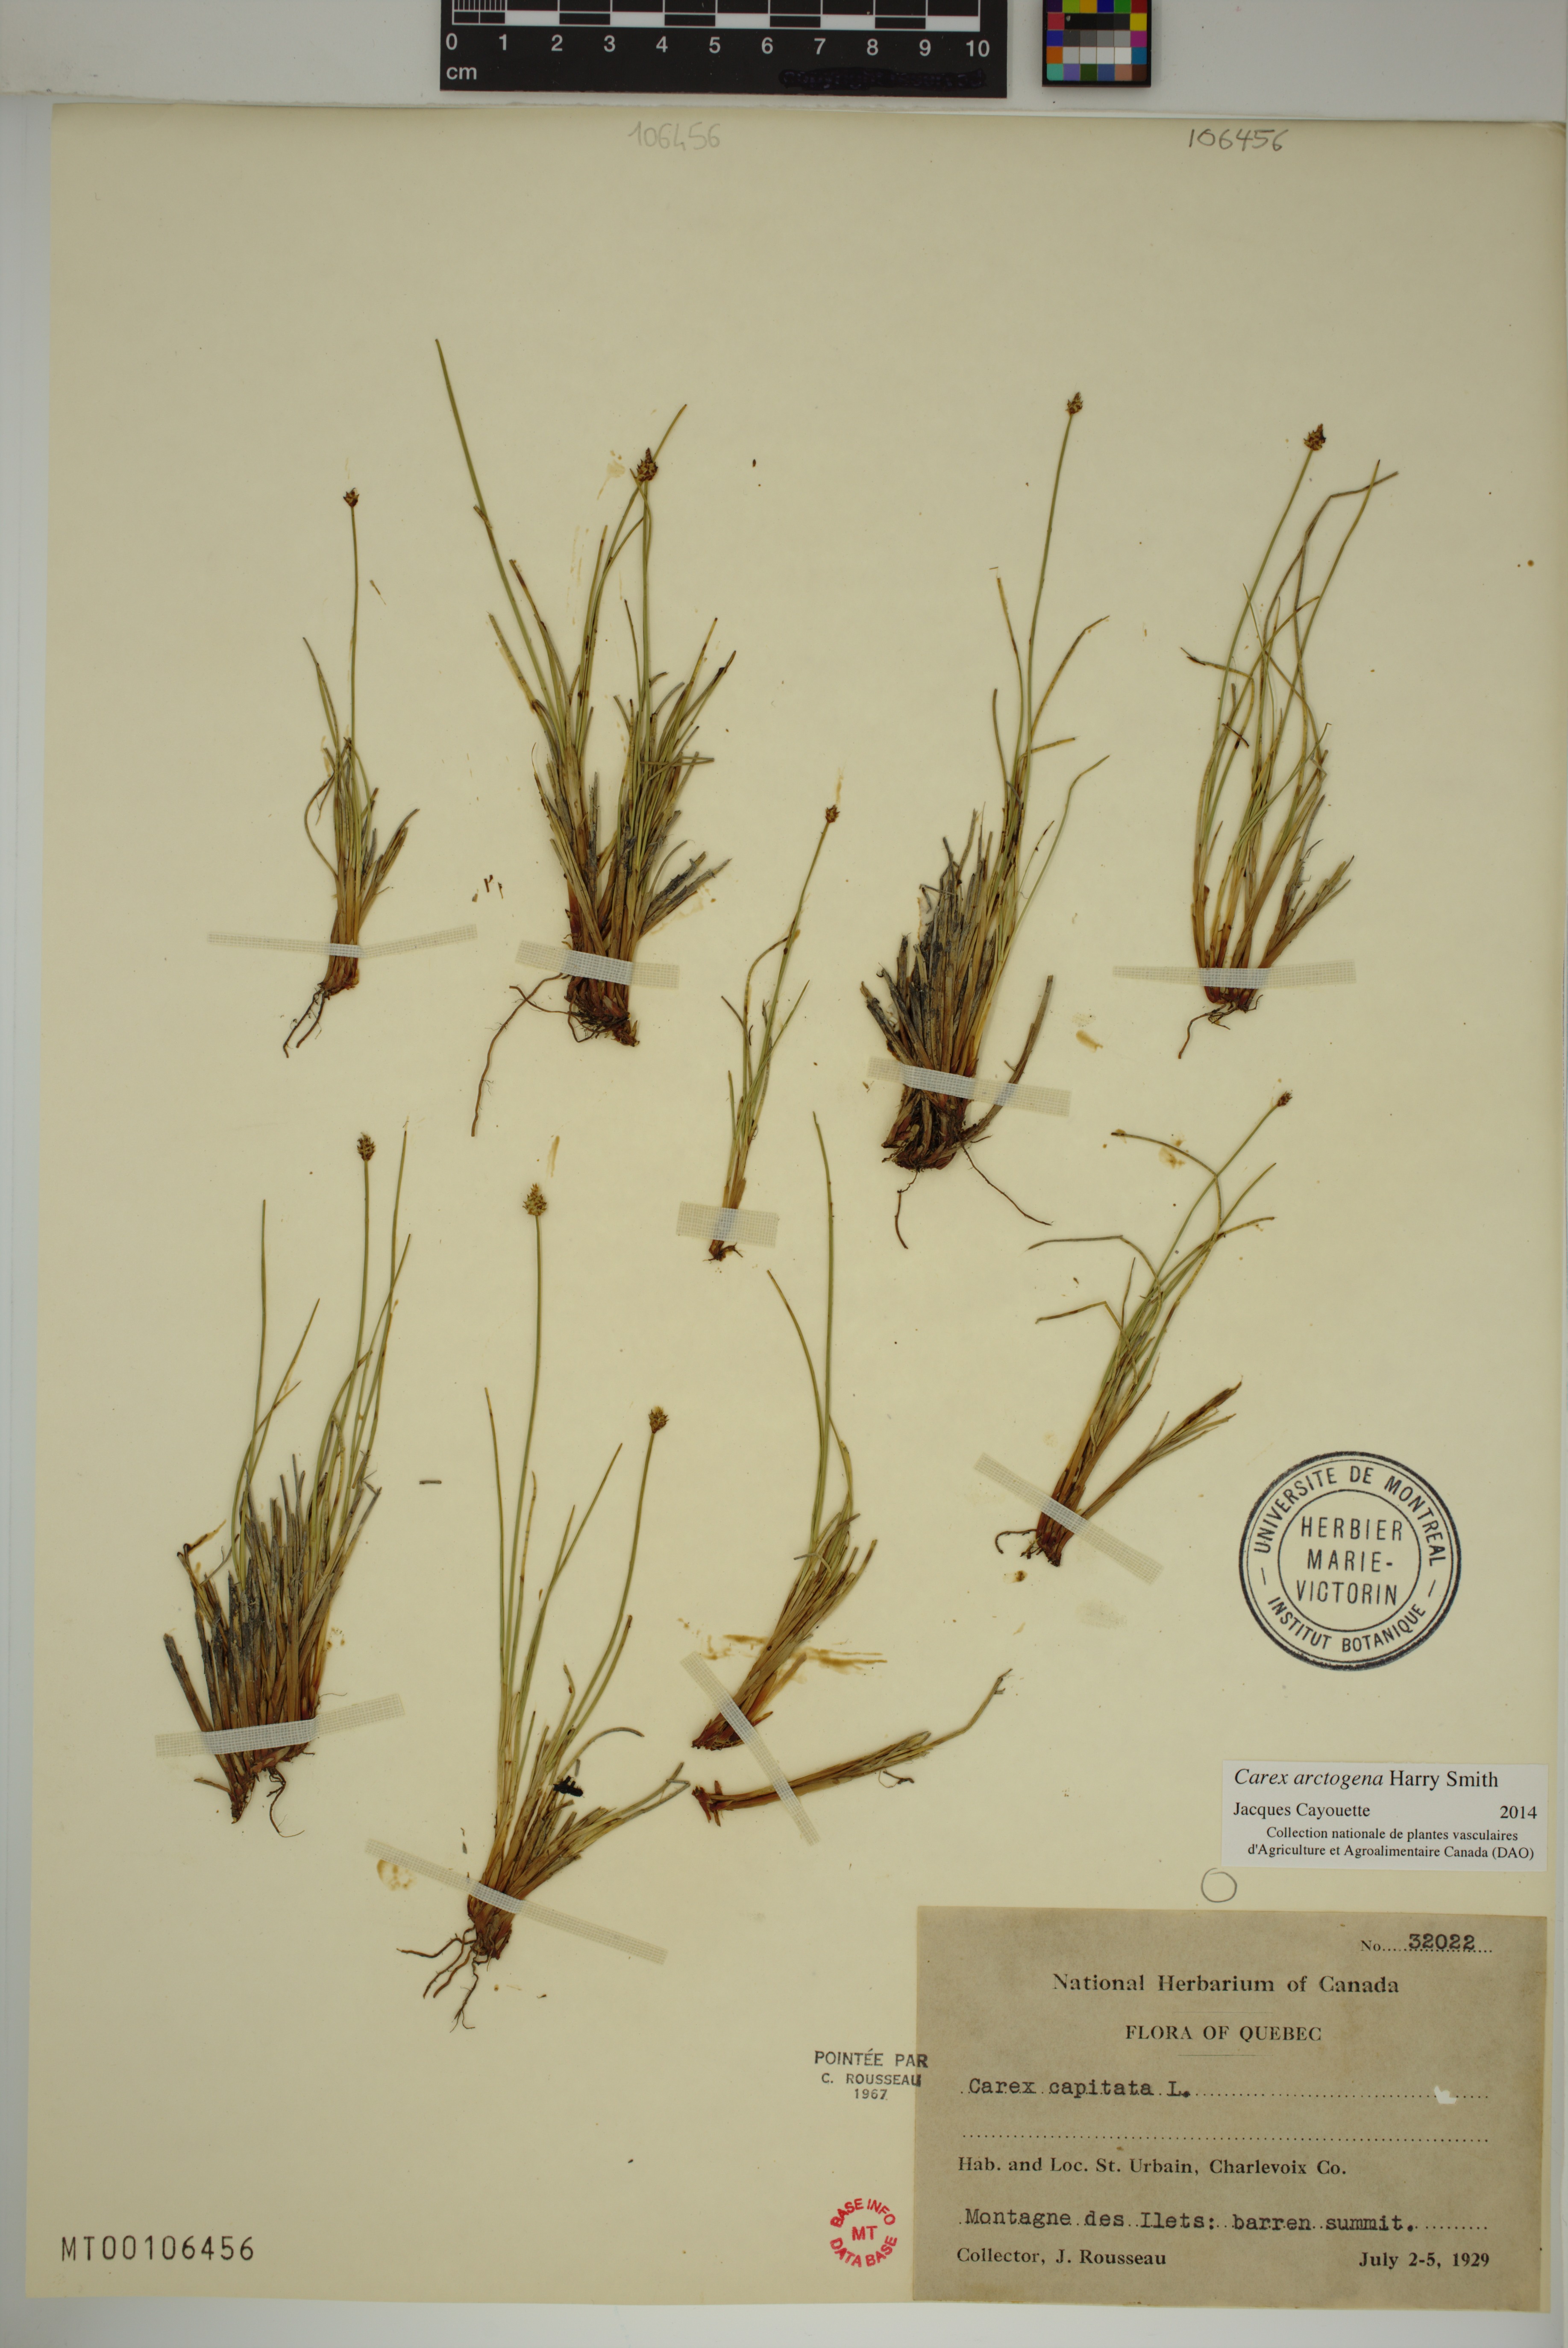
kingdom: Plantae
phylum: Tracheophyta
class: Liliopsida
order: Poales
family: Cyperaceae
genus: Carex
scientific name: Carex arctogena
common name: Black sedge
